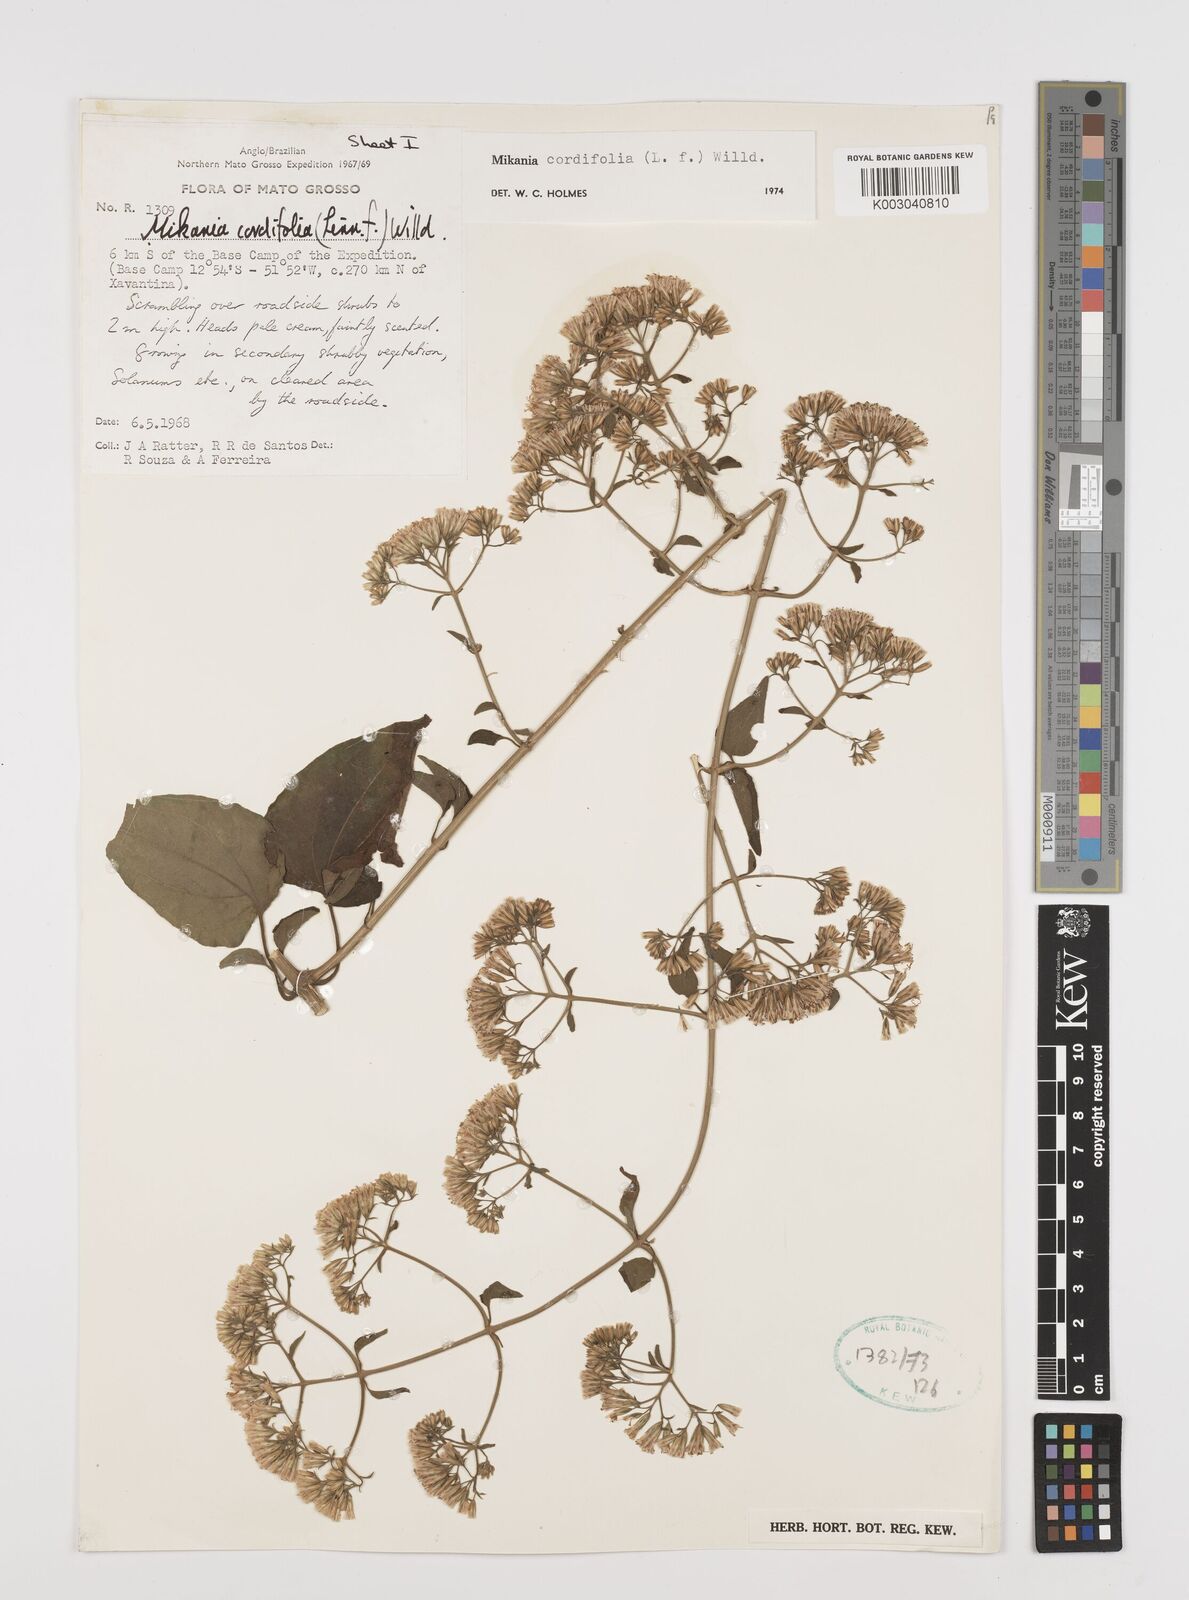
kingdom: Plantae
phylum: Tracheophyta
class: Magnoliopsida
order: Asterales
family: Asteraceae
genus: Mikania
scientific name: Mikania cordifolia
